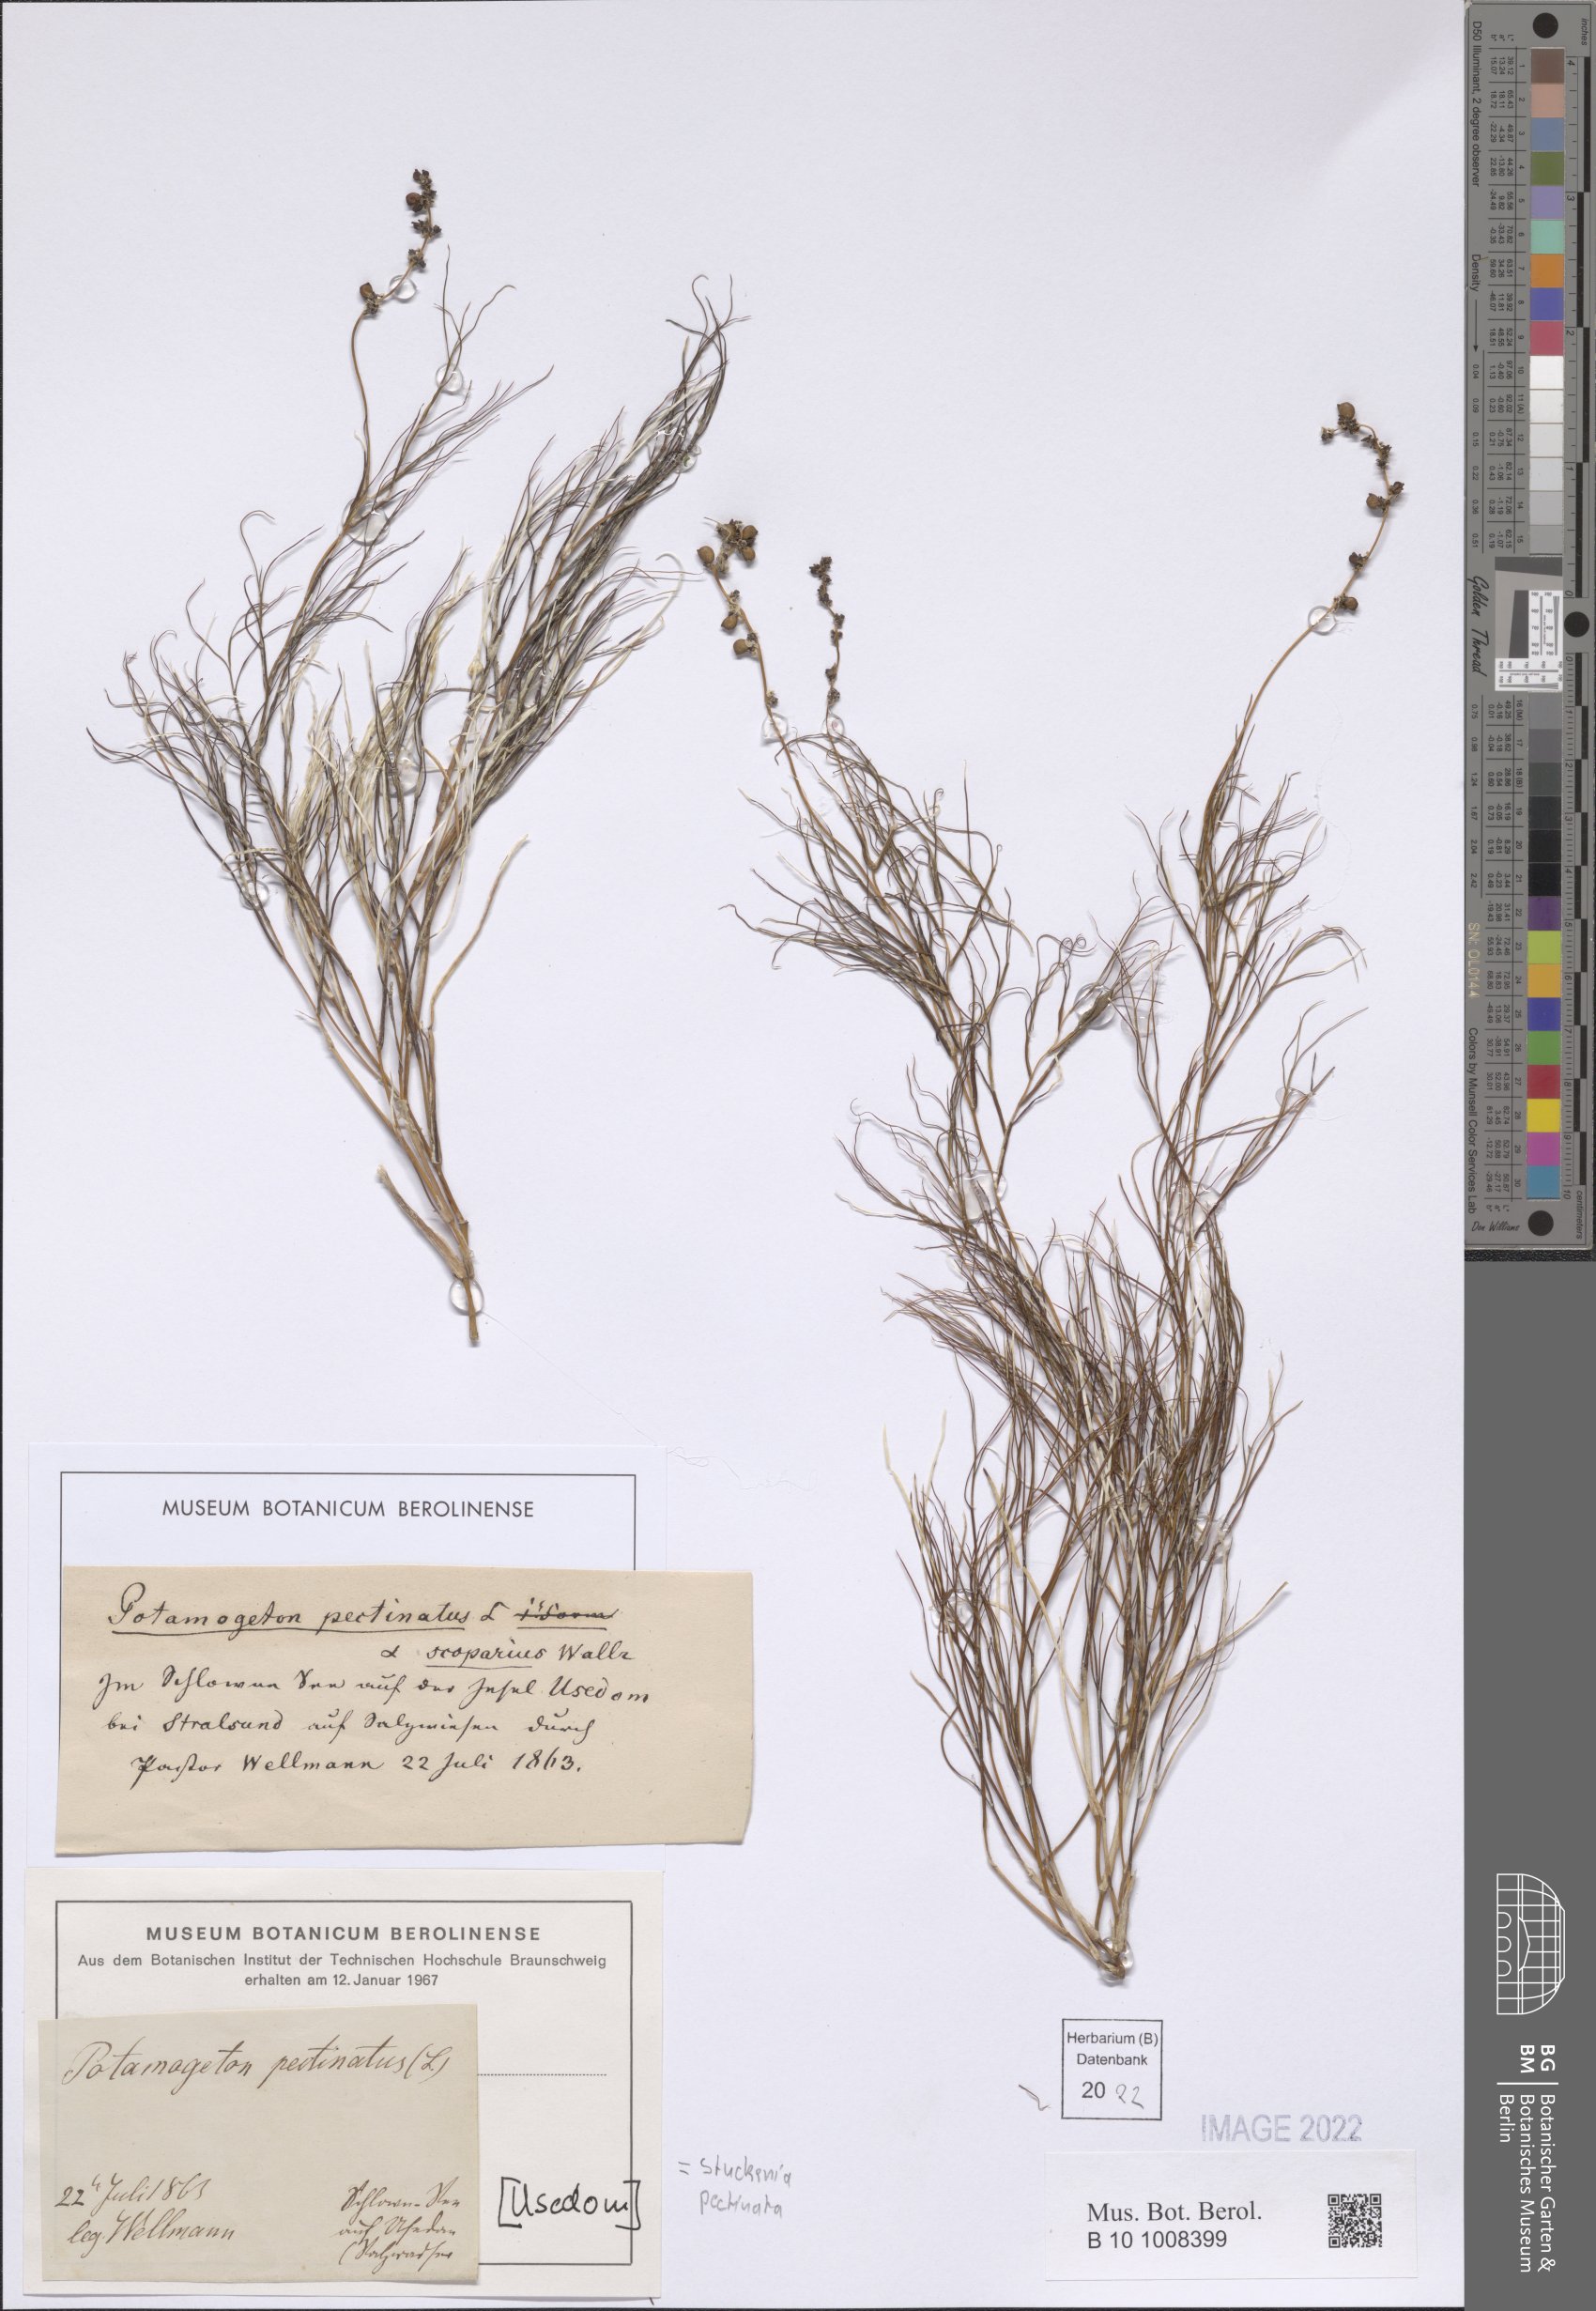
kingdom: Plantae
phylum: Tracheophyta
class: Liliopsida
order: Alismatales
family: Potamogetonaceae
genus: Stuckenia
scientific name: Stuckenia pectinata
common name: Sago pondweed
